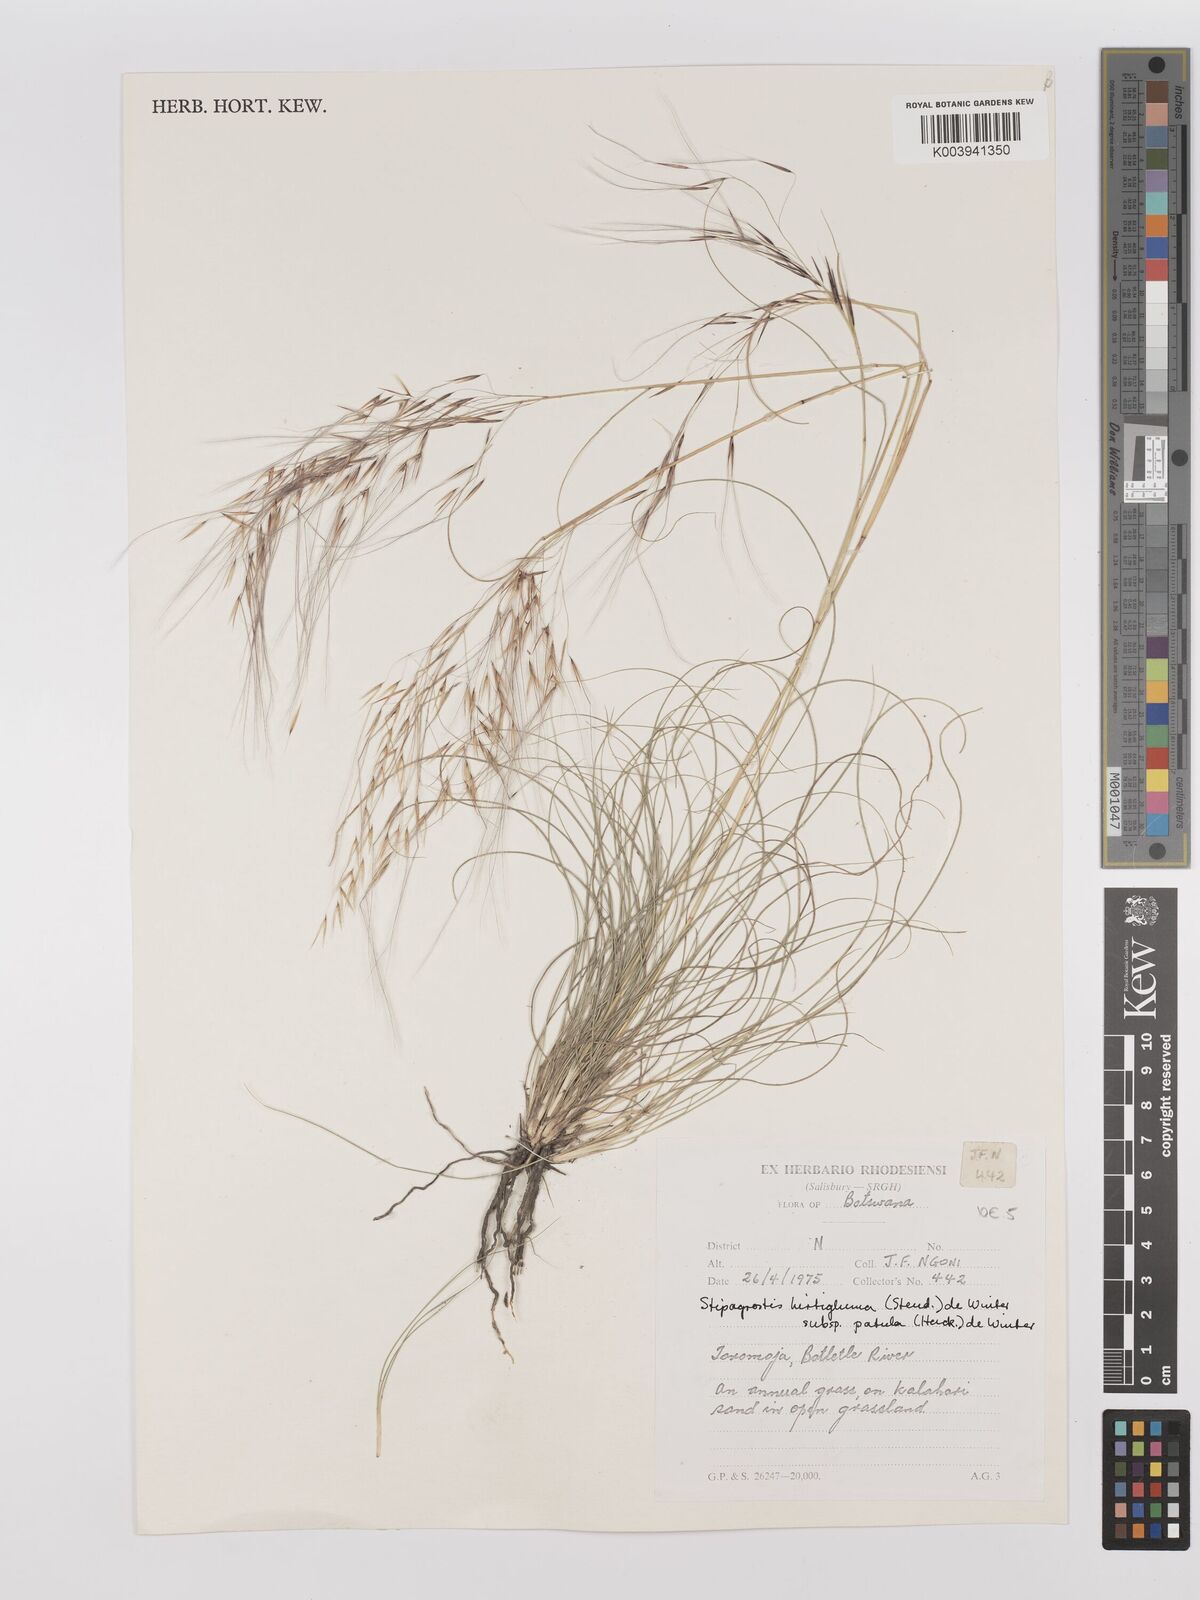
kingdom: Plantae
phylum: Tracheophyta
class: Liliopsida
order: Poales
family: Poaceae
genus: Stipagrostis
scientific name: Stipagrostis hirtigluma
